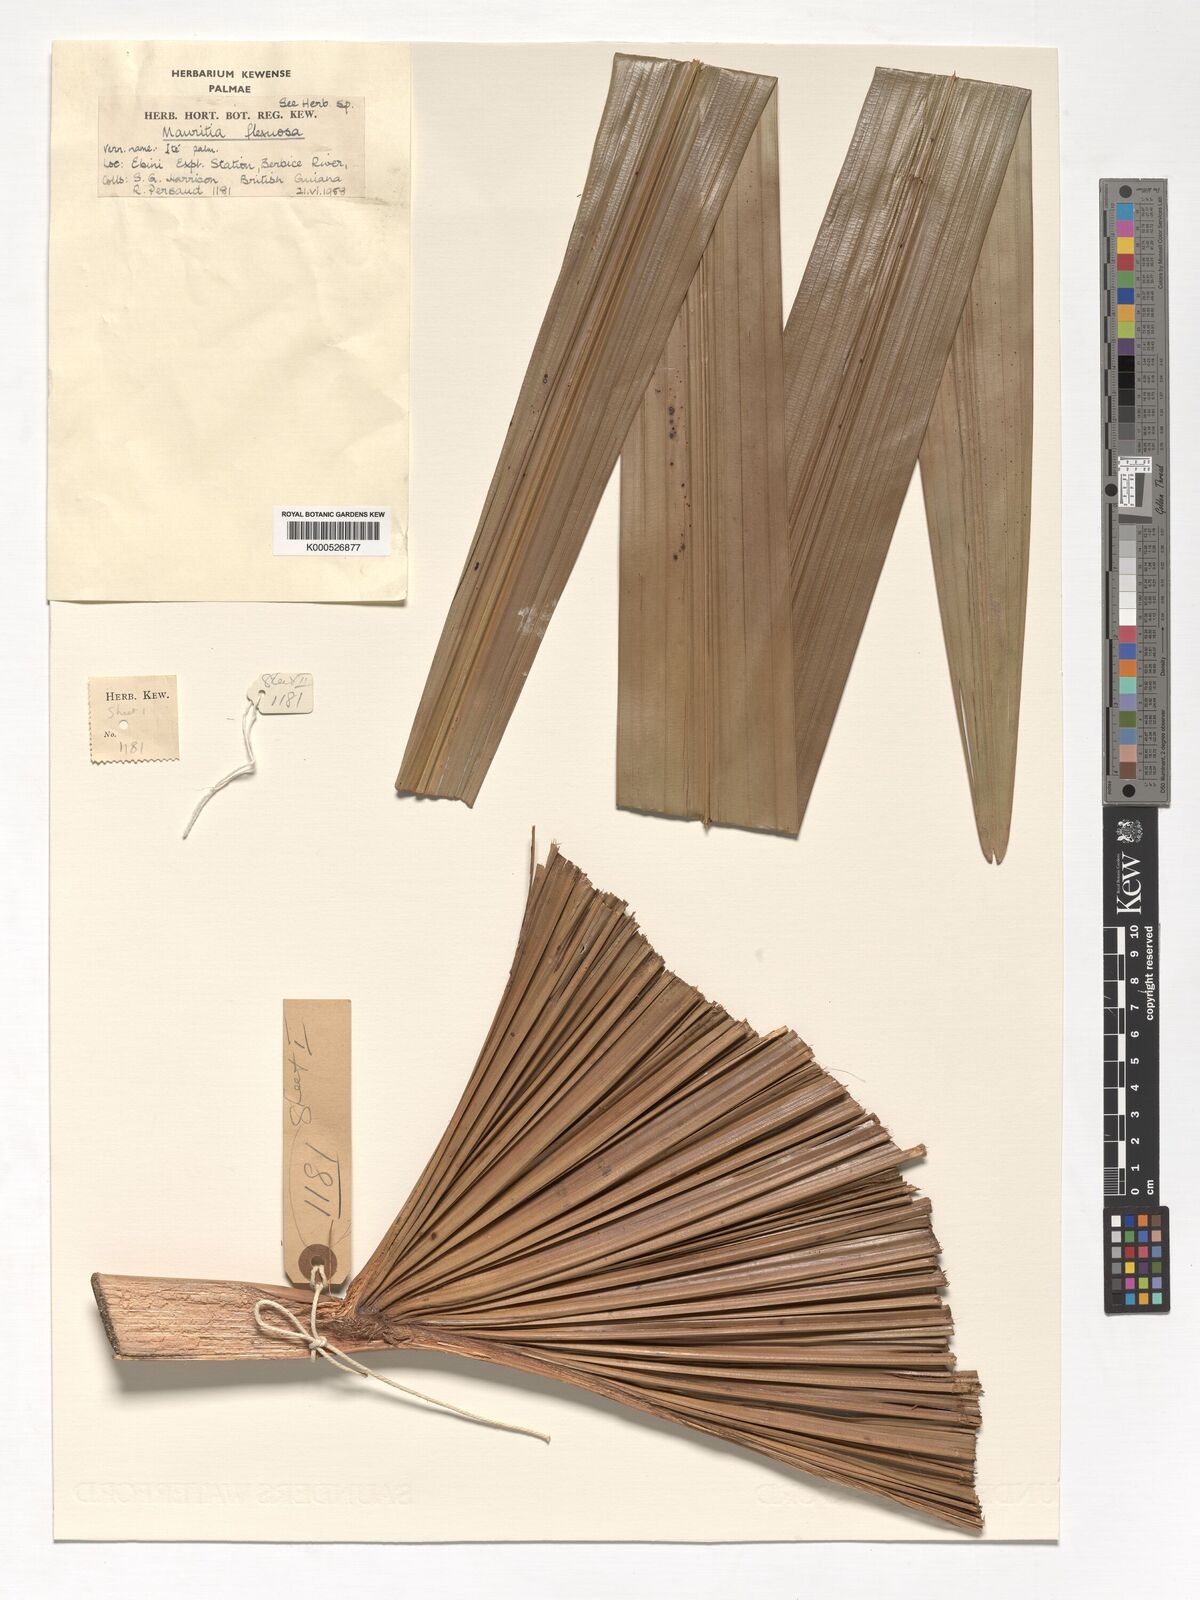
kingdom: Plantae
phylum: Tracheophyta
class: Liliopsida
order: Arecales
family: Arecaceae
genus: Mauritia
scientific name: Mauritia flexuosa
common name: Tree-of-life
